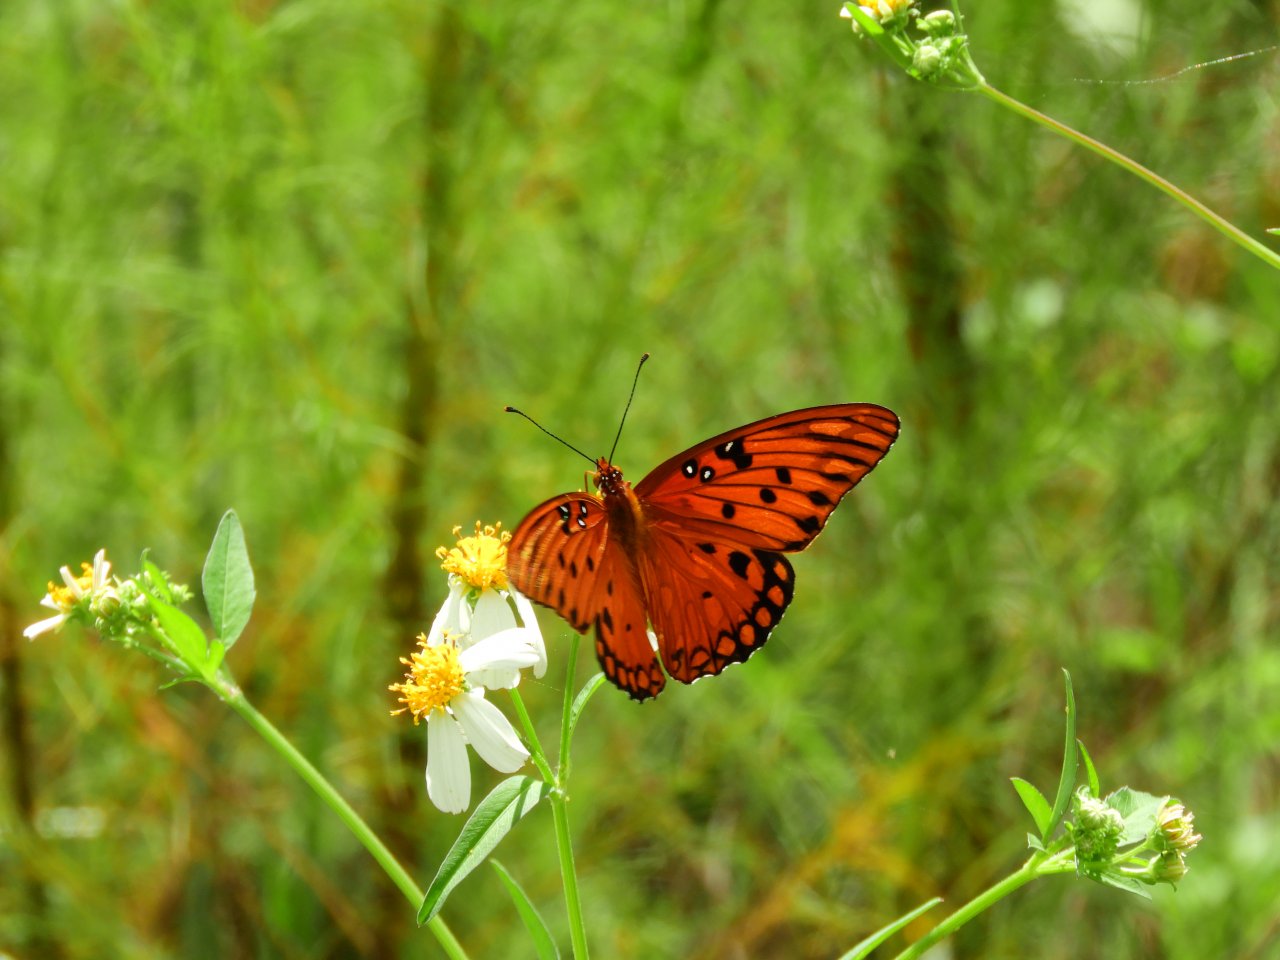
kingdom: Animalia
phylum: Arthropoda
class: Insecta
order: Lepidoptera
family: Nymphalidae
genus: Dione
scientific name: Dione vanillae
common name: Gulf Fritillary
